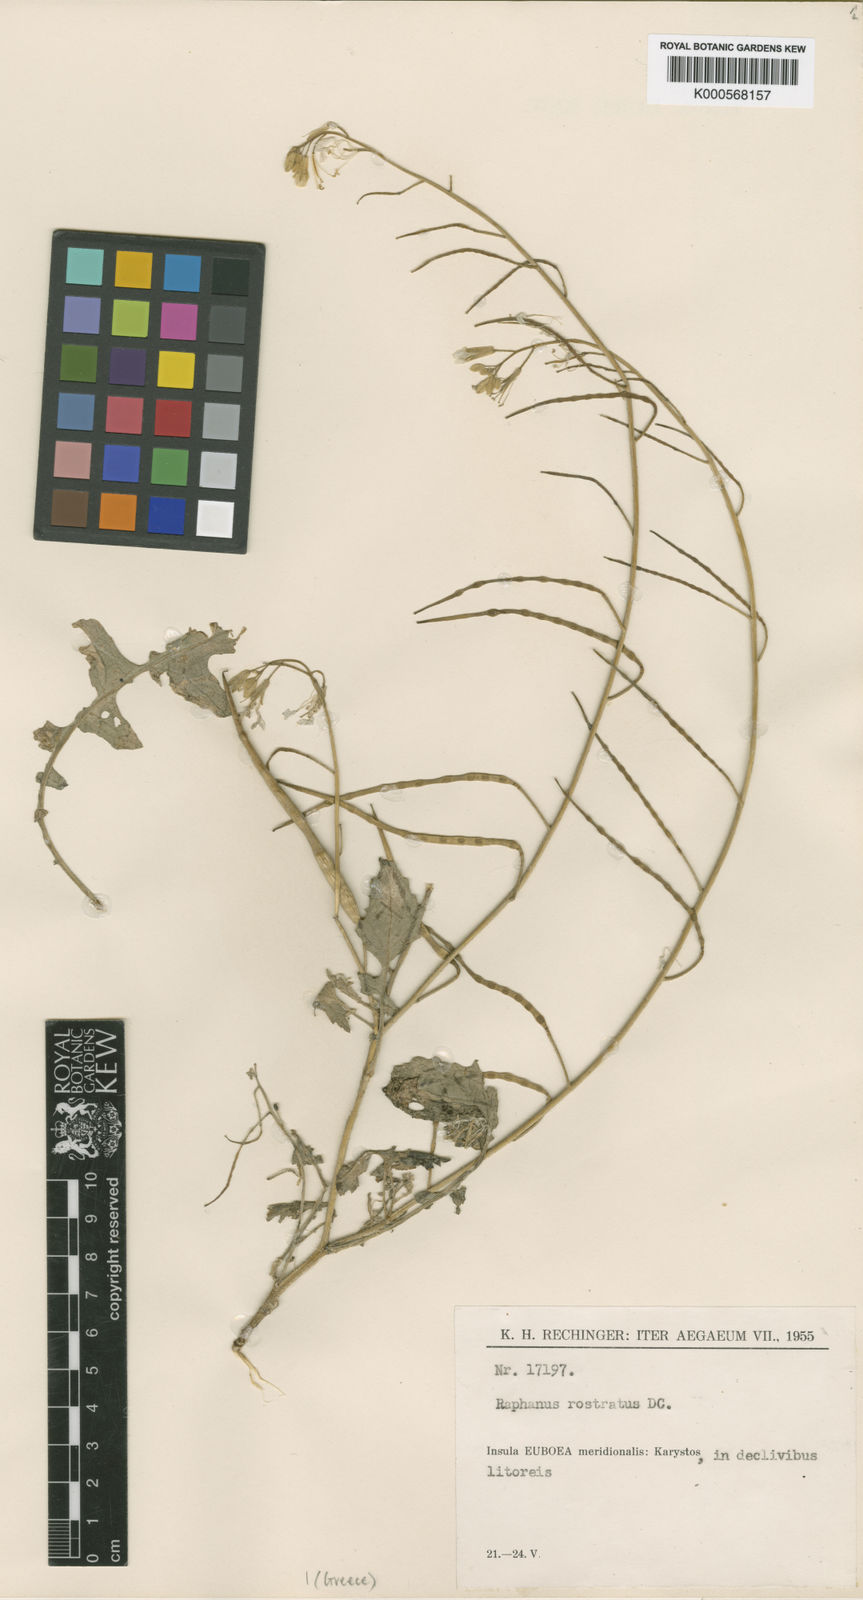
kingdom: Plantae
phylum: Tracheophyta
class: Magnoliopsida
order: Brassicales
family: Brassicaceae
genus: Raphanus
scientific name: Raphanus raphanistrum
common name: Wild radish
